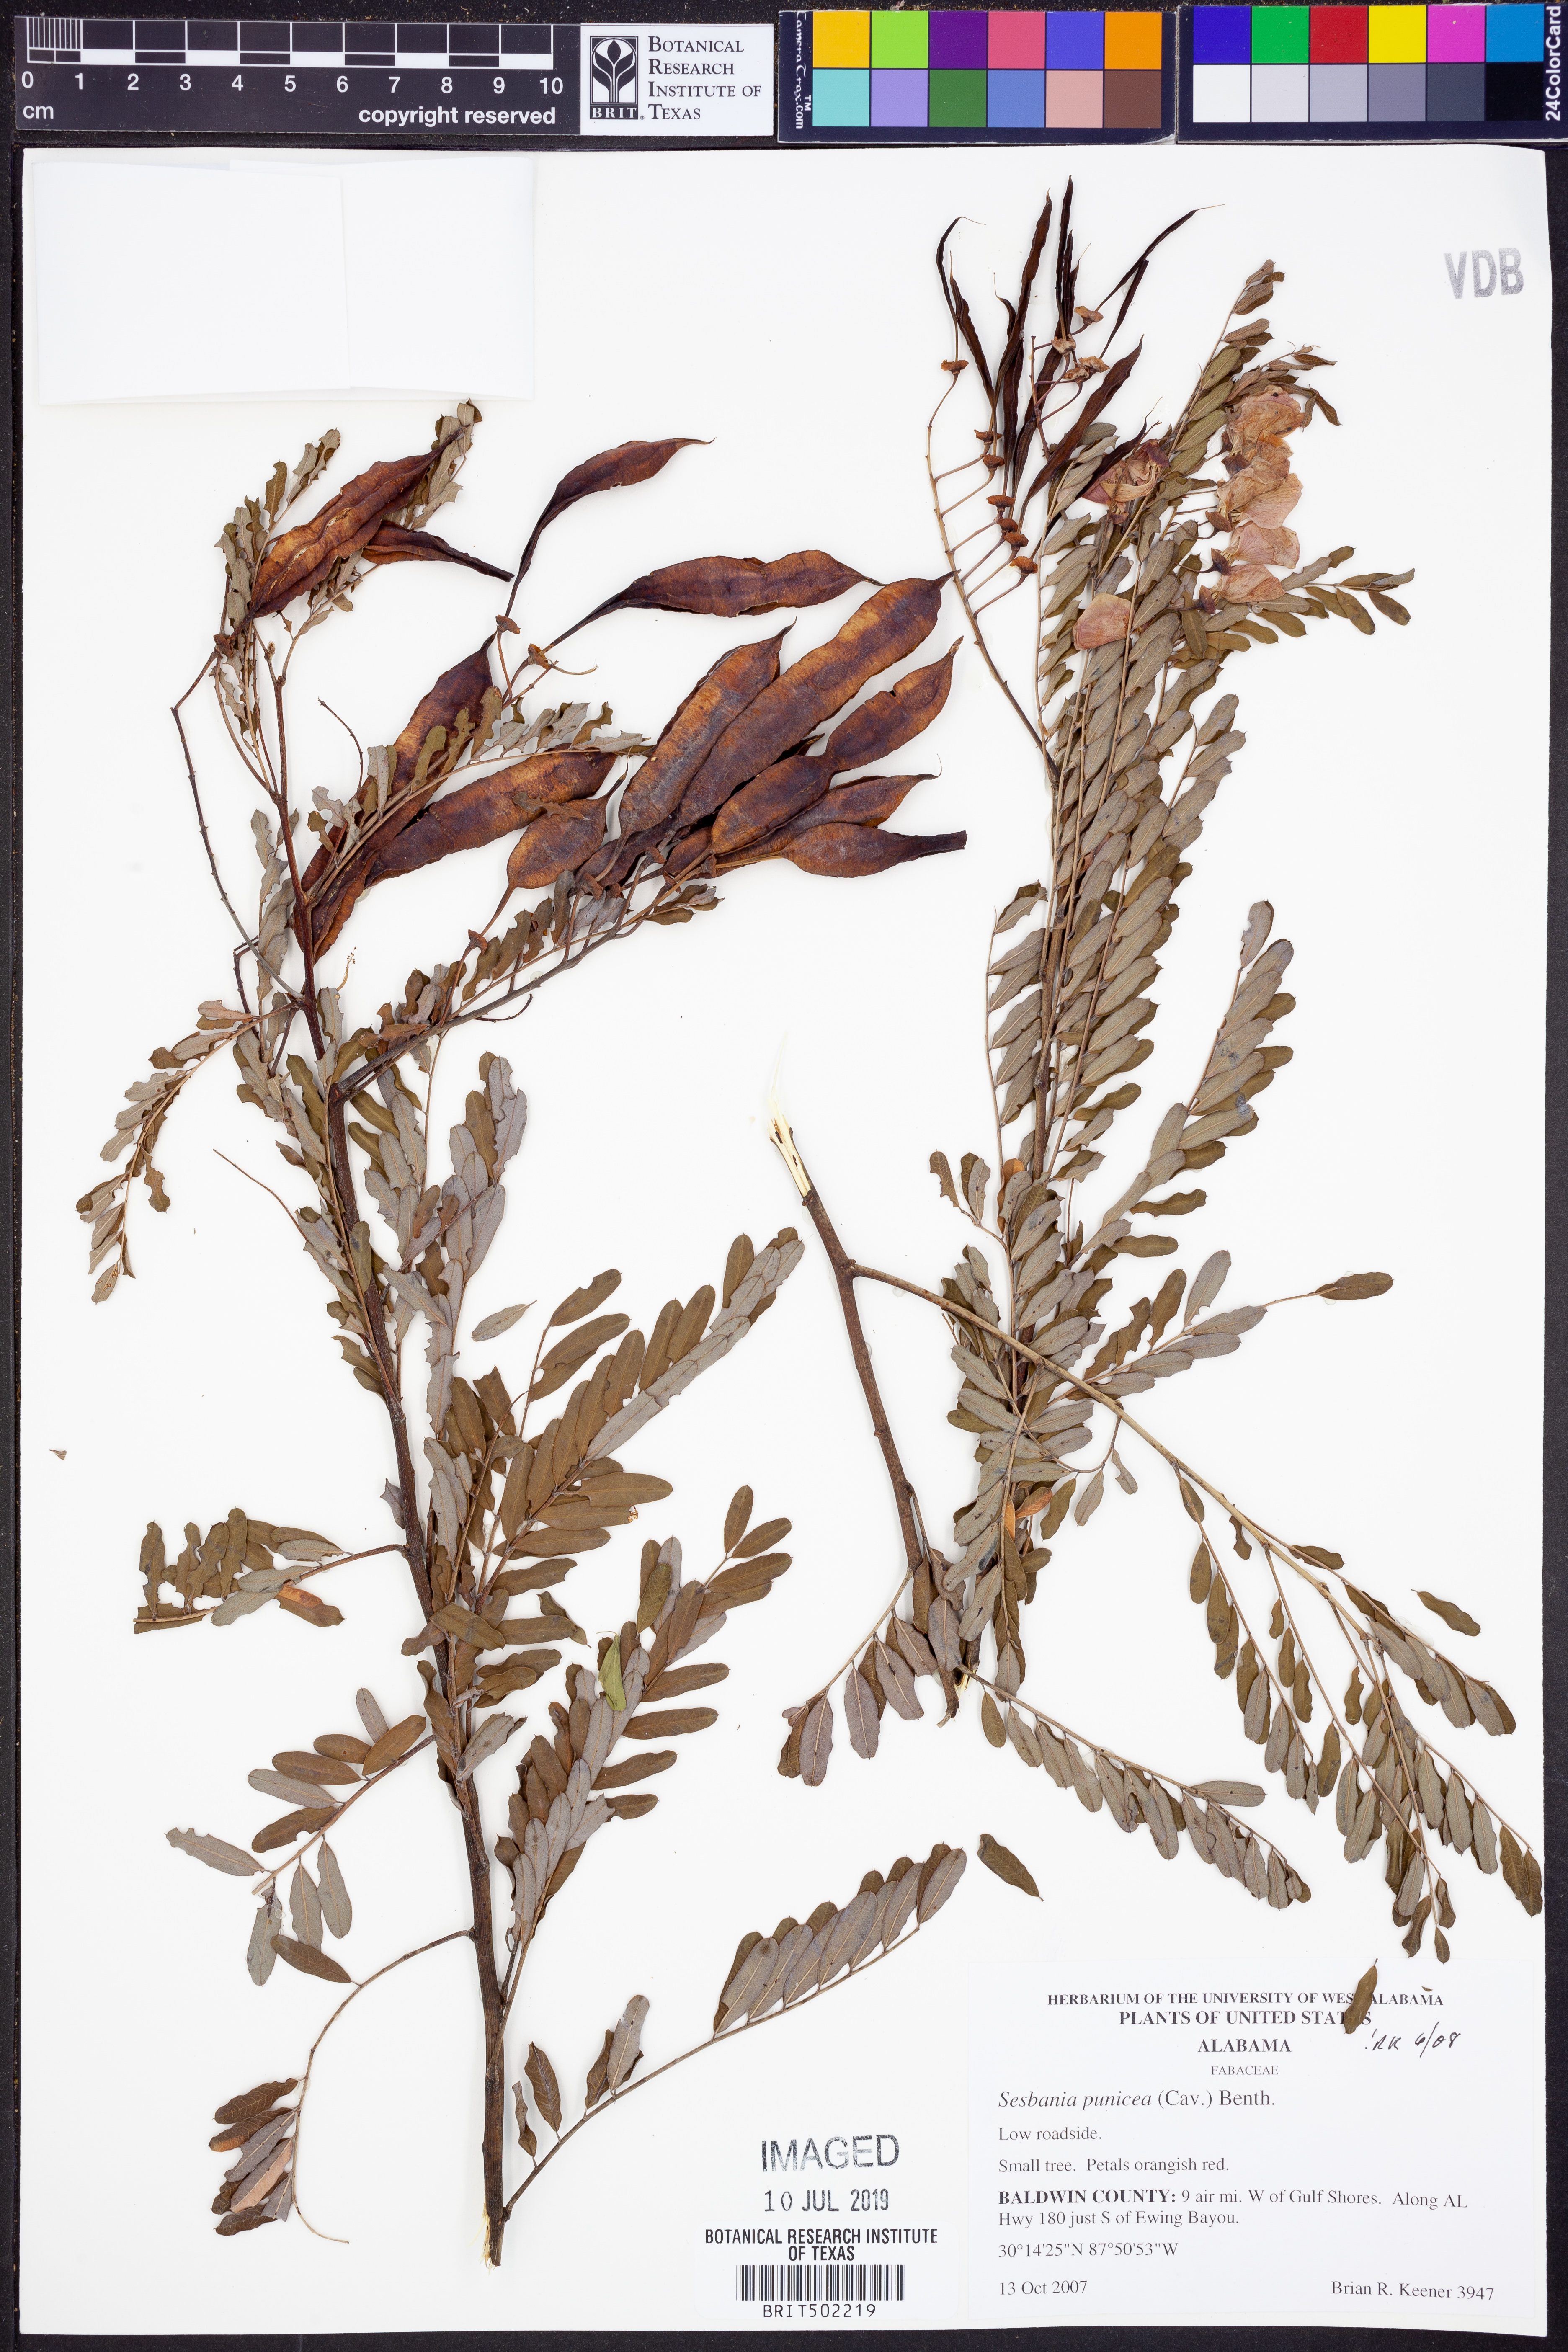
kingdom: Plantae
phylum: Tracheophyta
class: Magnoliopsida
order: Fabales
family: Fabaceae
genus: Sesbania
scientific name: Sesbania punicea
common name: Rattlebox
